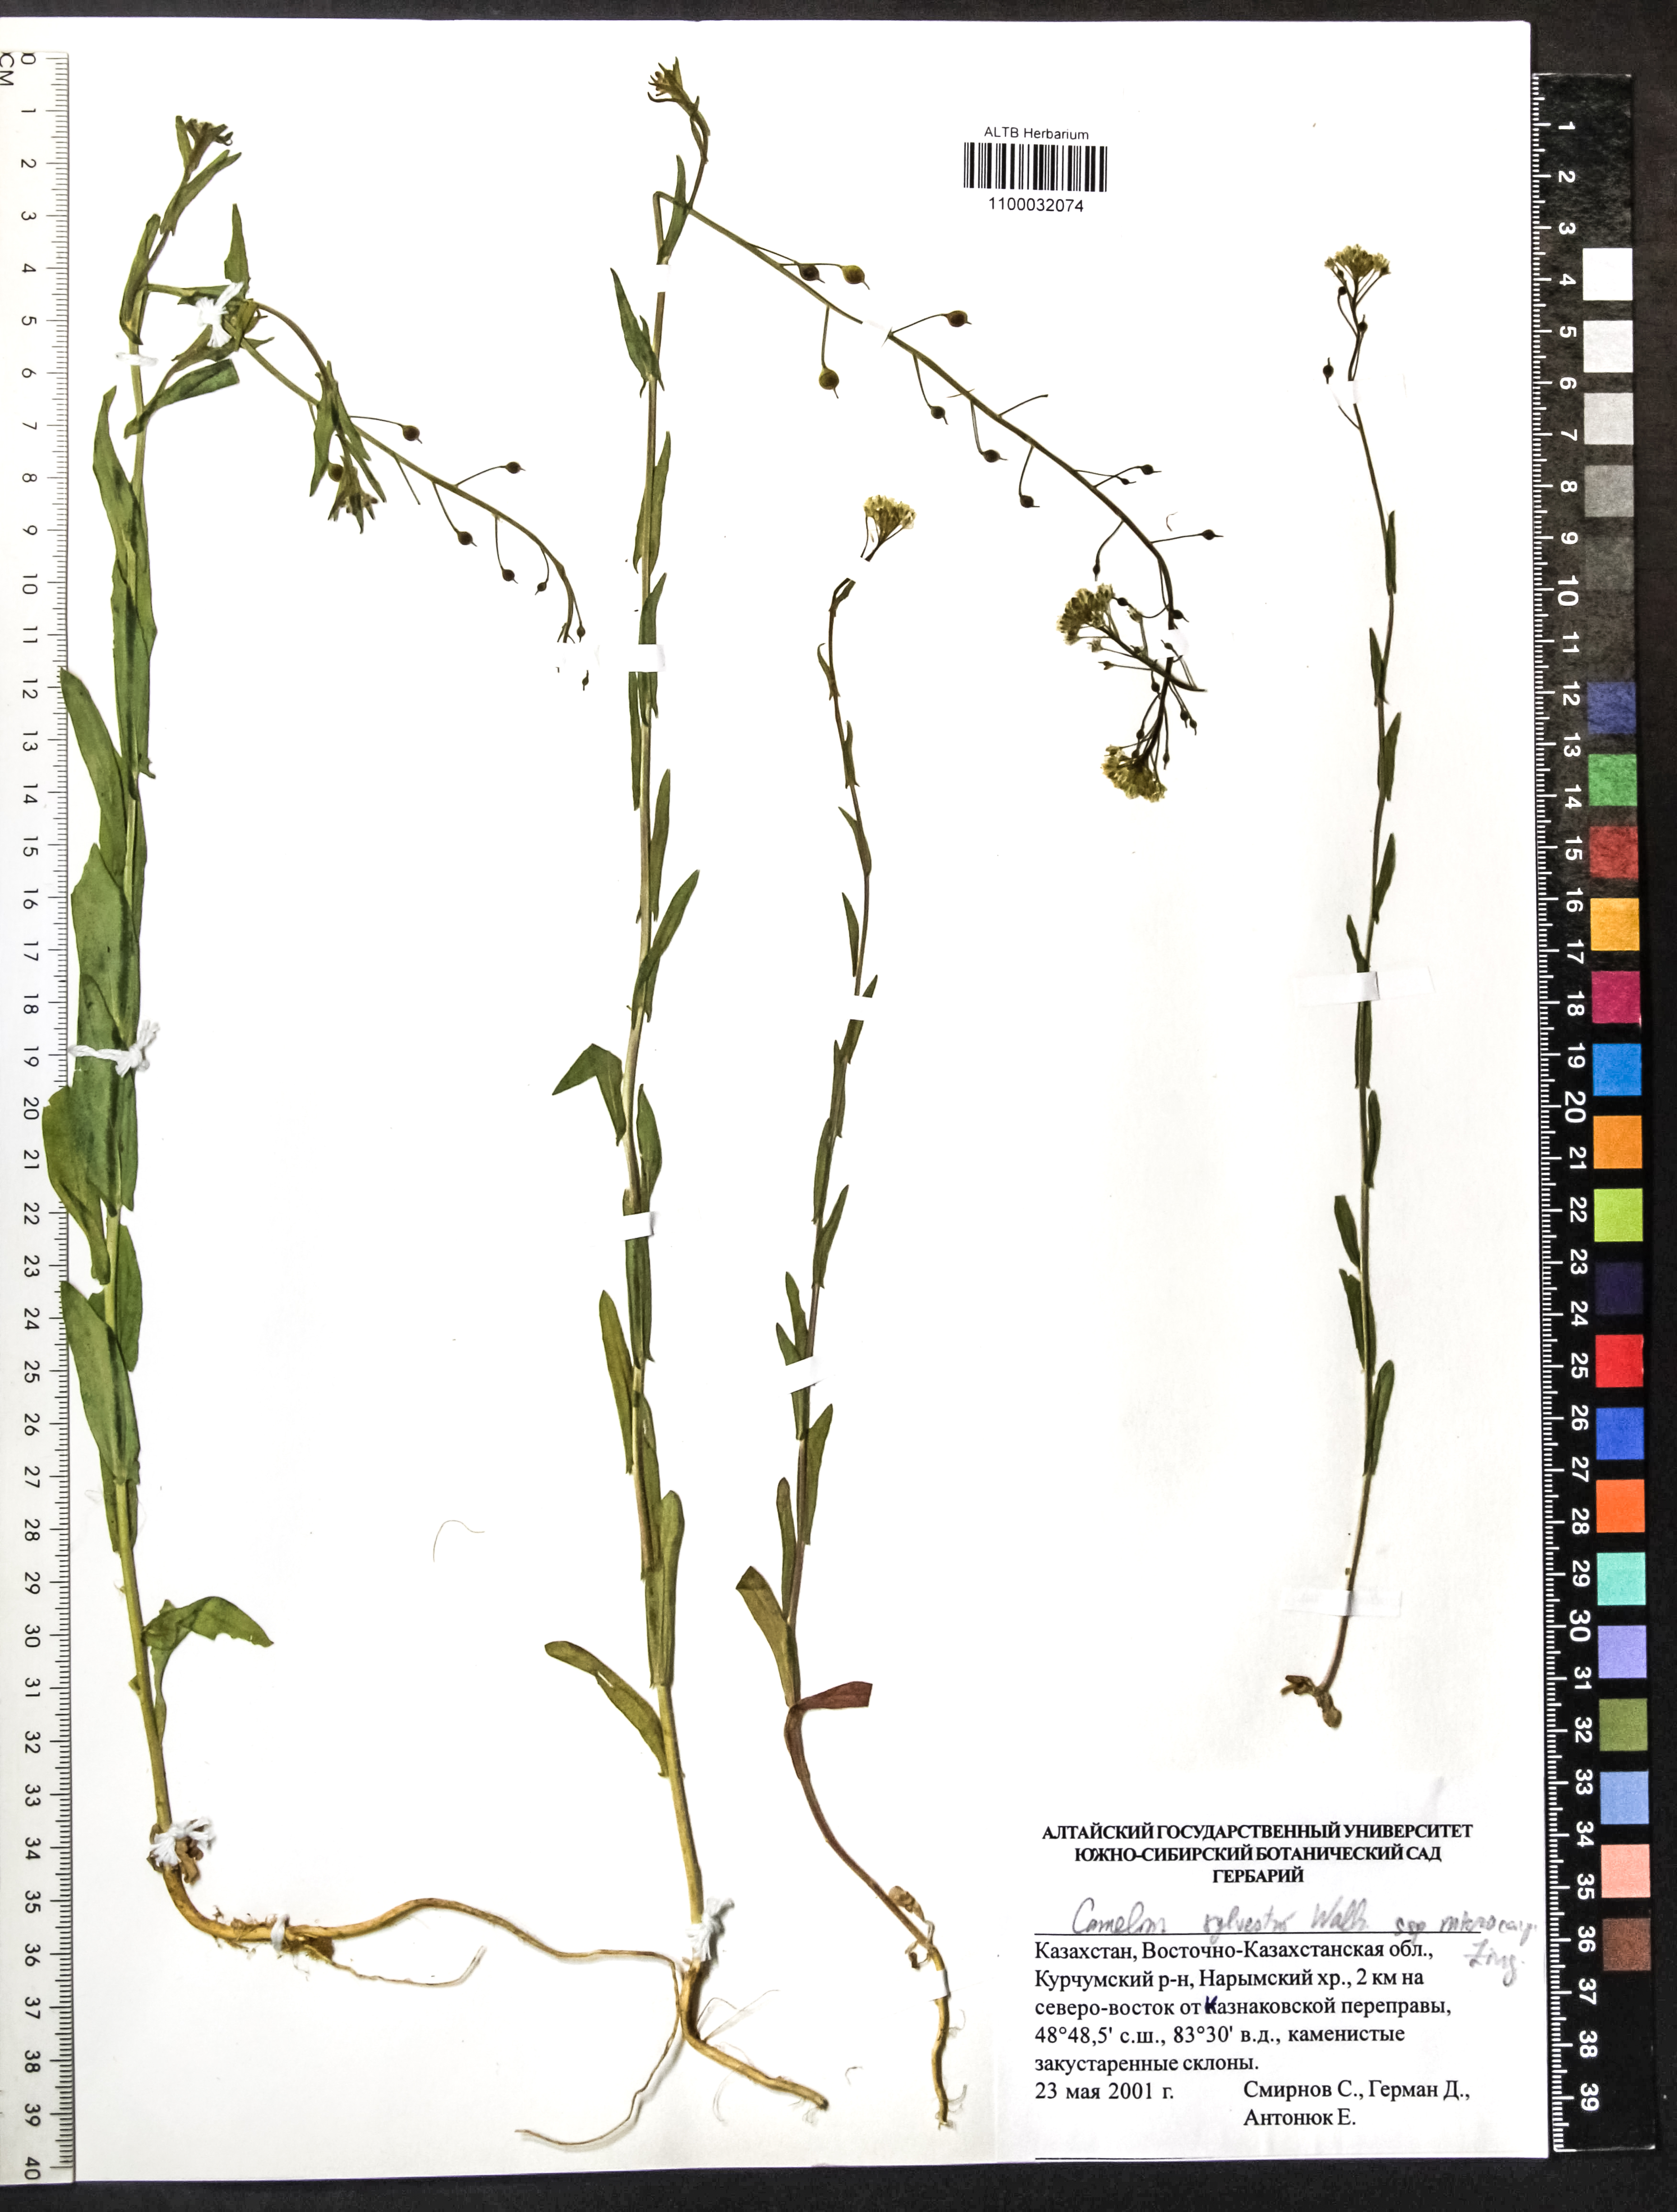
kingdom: Plantae
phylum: Tracheophyta
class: Magnoliopsida
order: Brassicales
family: Brassicaceae
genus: Camelina
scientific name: Camelina microcarpa
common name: Lesser gold-of-pleasure
